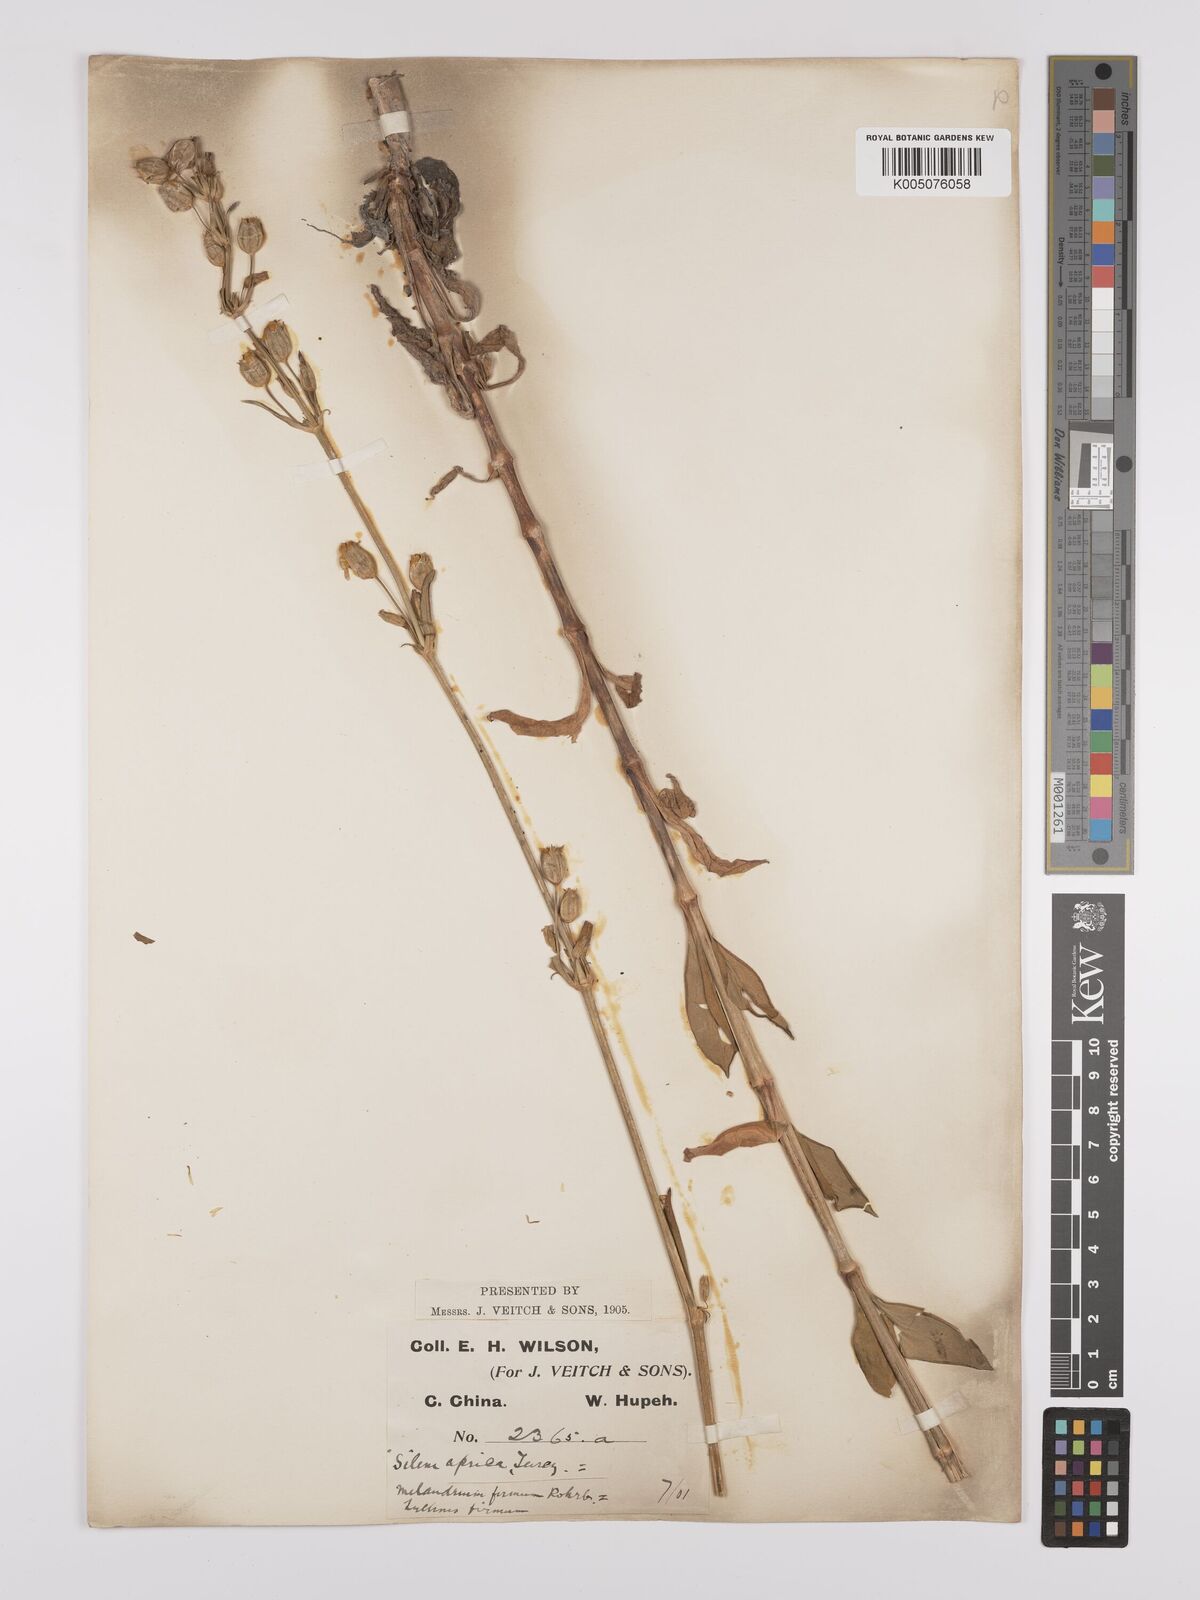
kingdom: Plantae
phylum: Tracheophyta
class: Magnoliopsida
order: Caryophyllales
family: Caryophyllaceae
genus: Silene
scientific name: Silene aprica
